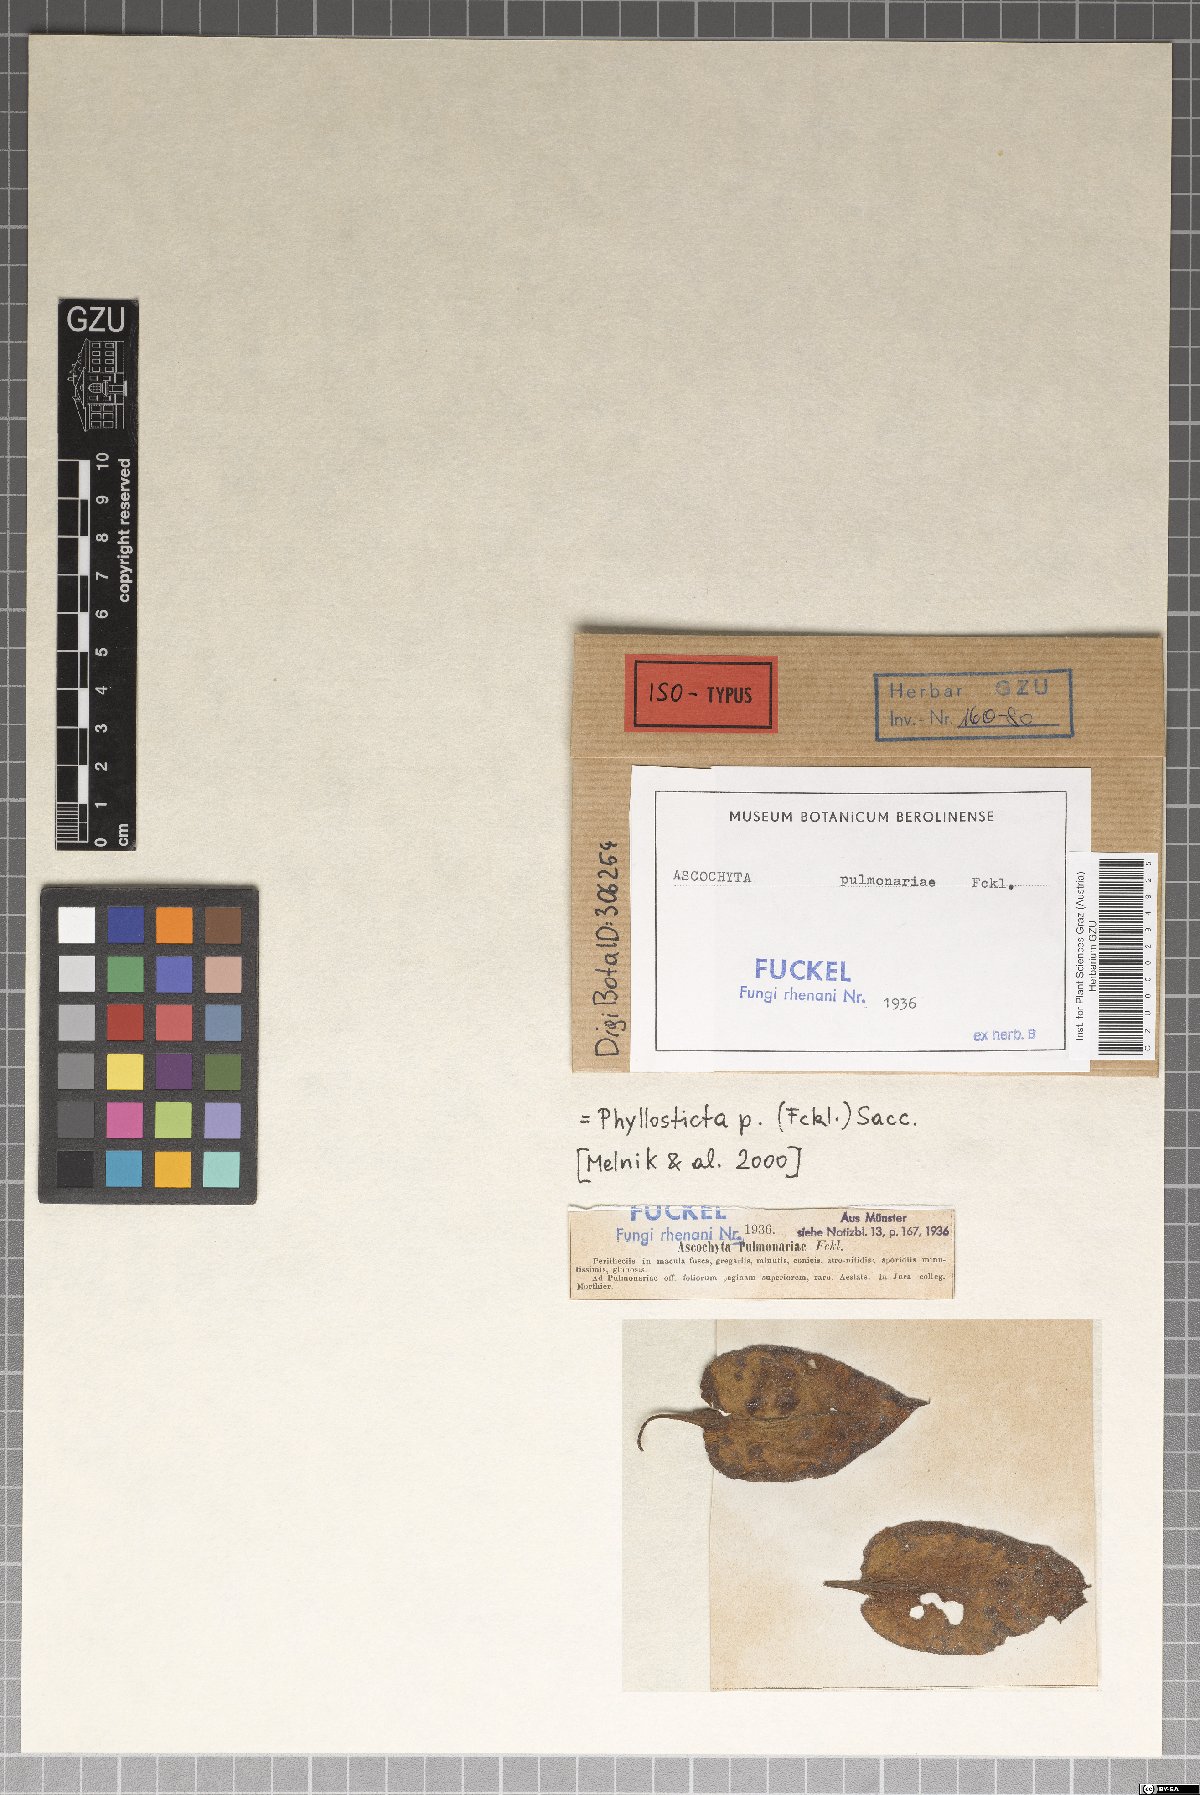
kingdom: Fungi
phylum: Ascomycota
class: Dothideomycetes
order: Pleosporales
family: Didymellaceae
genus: Ascochyta
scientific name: Ascochyta
